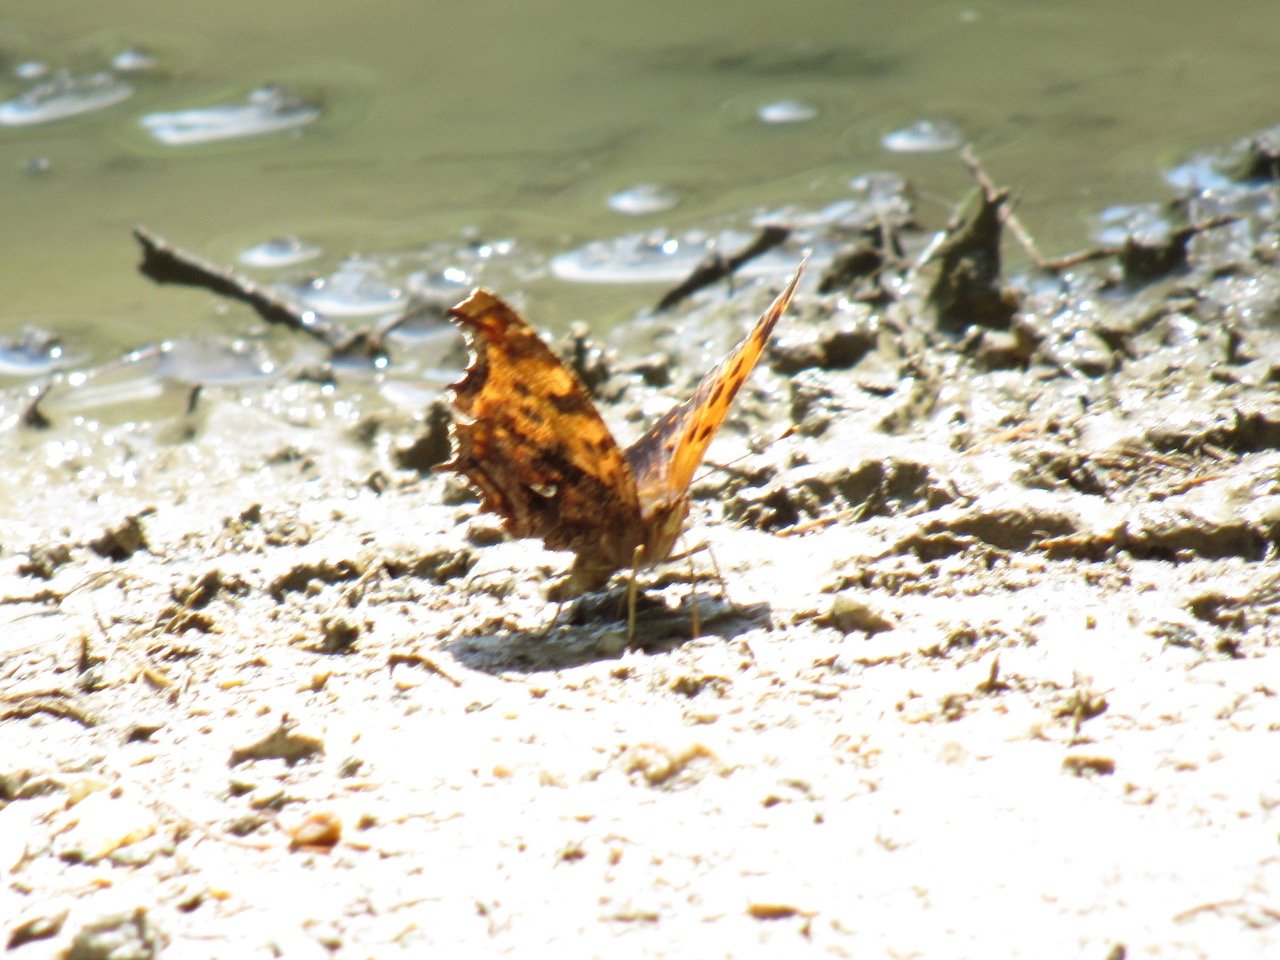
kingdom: Animalia
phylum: Arthropoda
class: Insecta
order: Lepidoptera
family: Nymphalidae
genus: Polygonia
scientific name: Polygonia comma
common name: Eastern Comma
